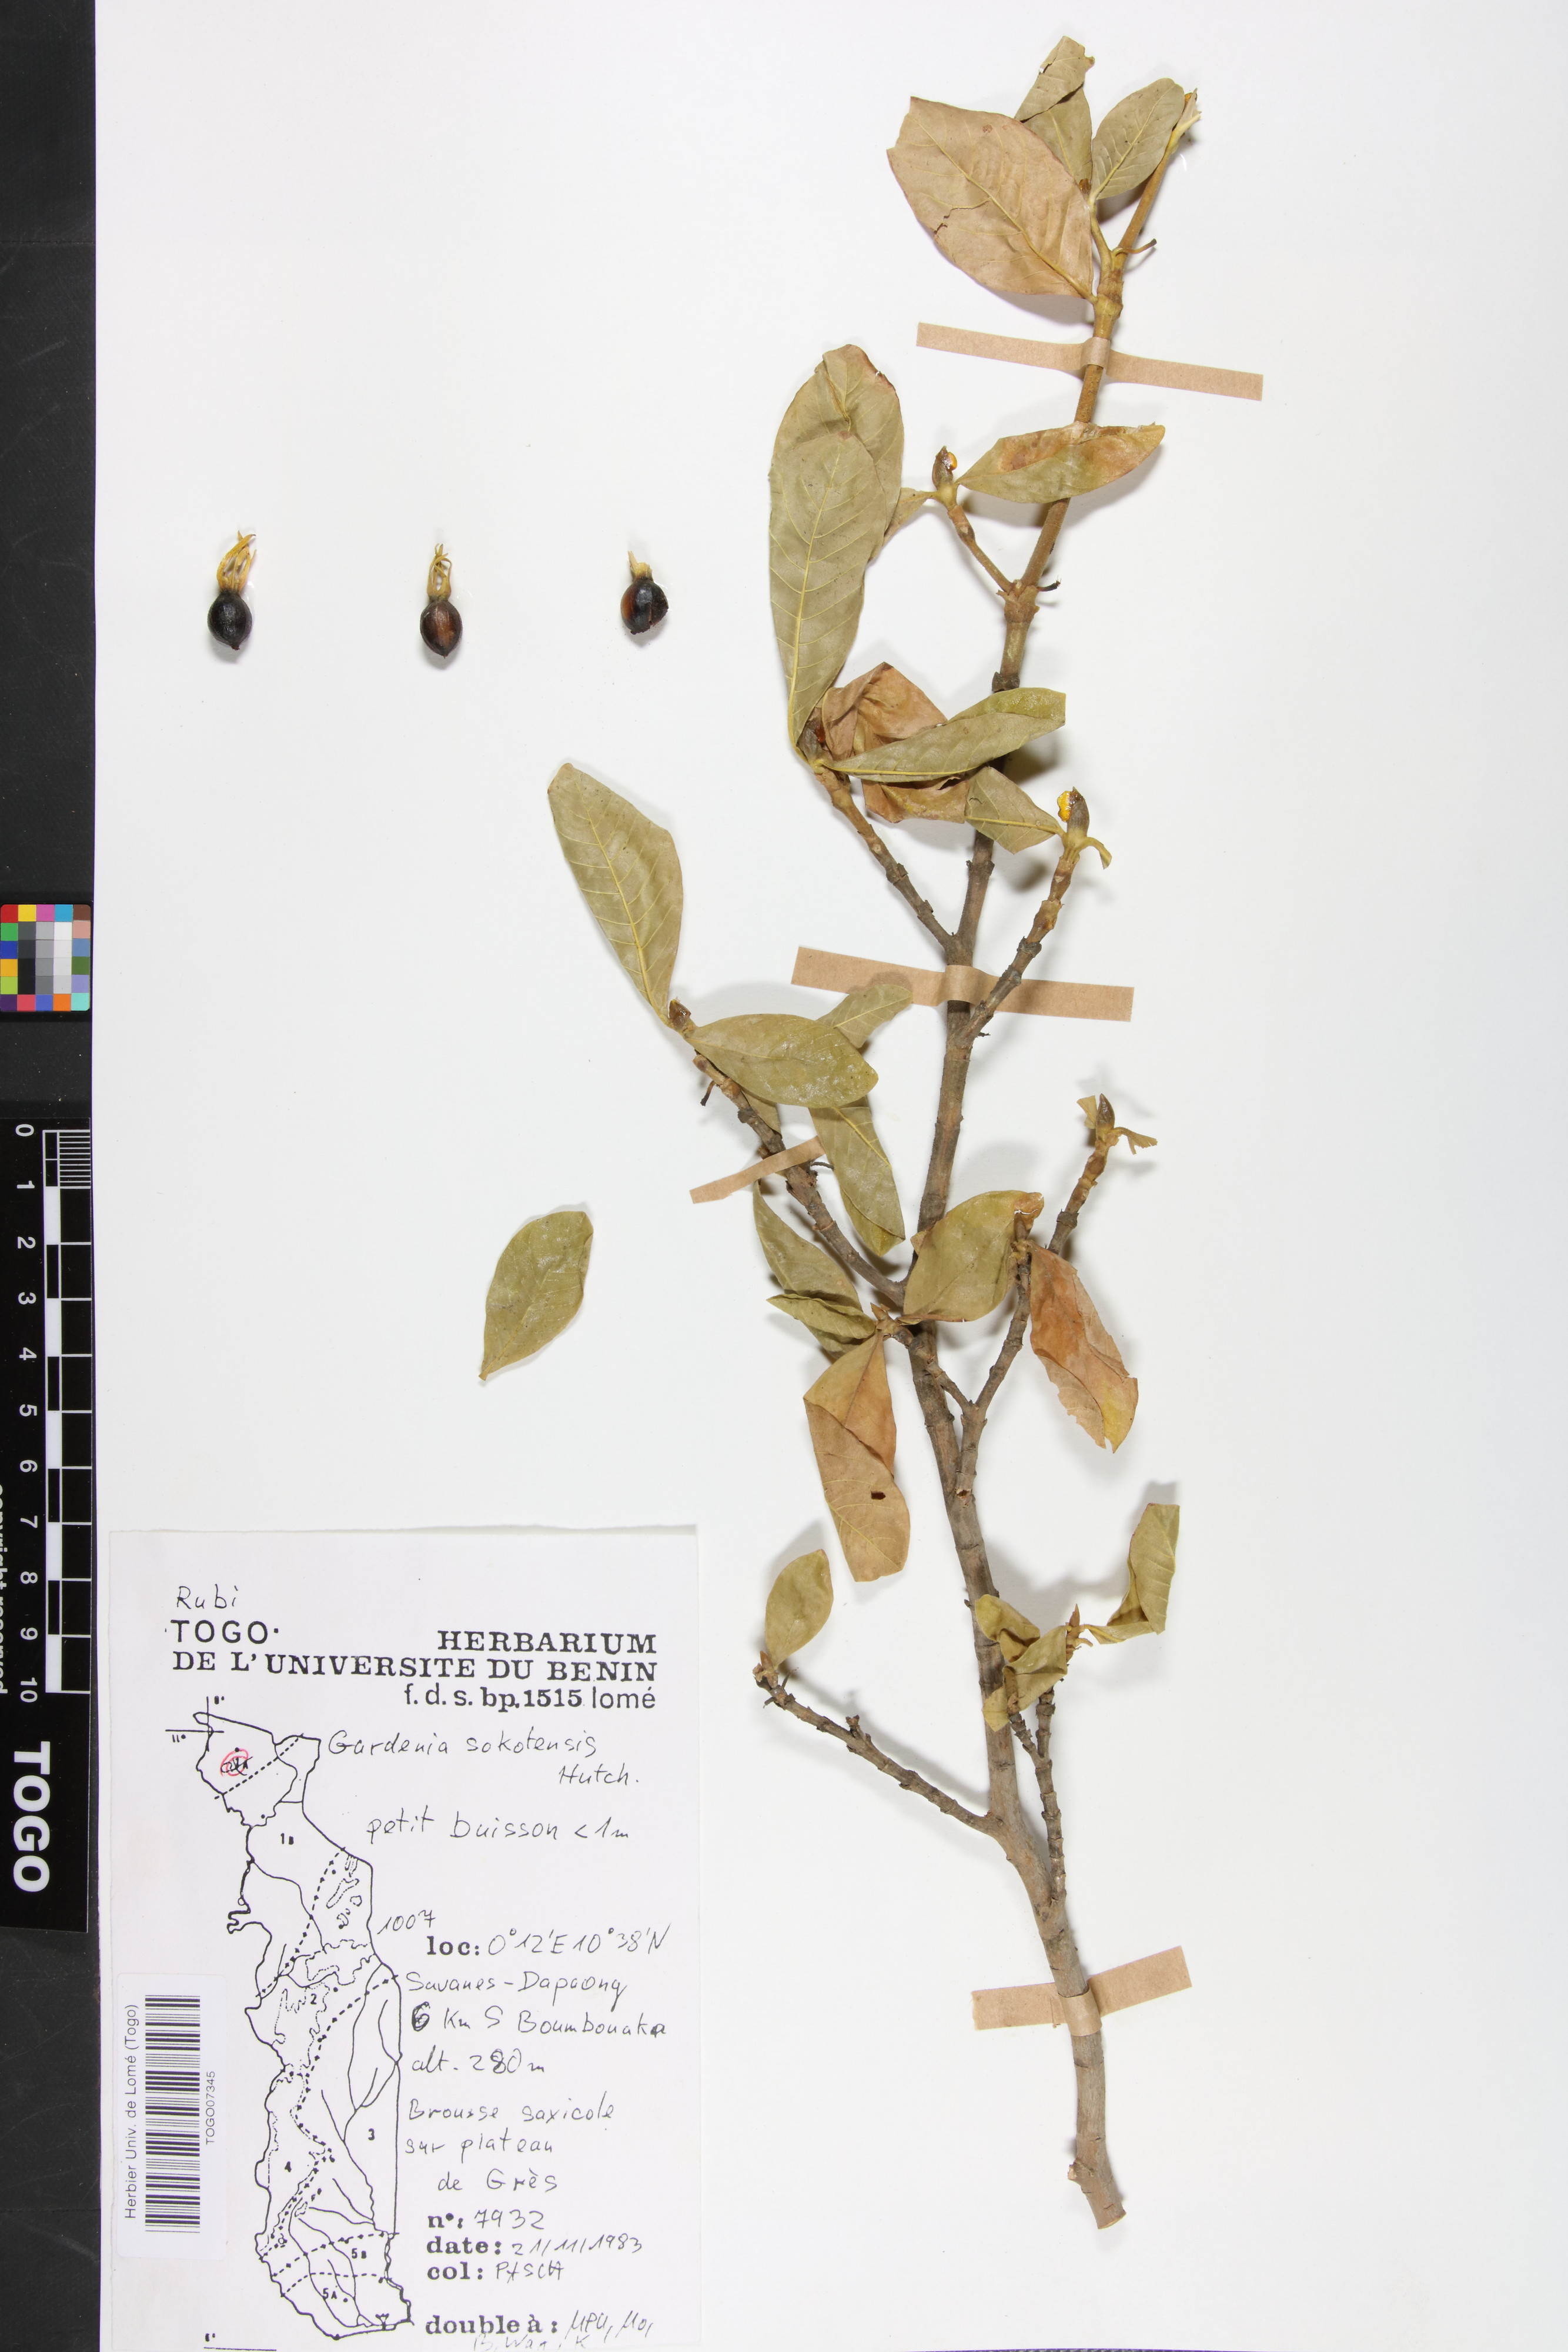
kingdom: Plantae
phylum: Tracheophyta
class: Magnoliopsida
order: Gentianales
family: Rubiaceae
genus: Gardenia
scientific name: Gardenia sokotensis
